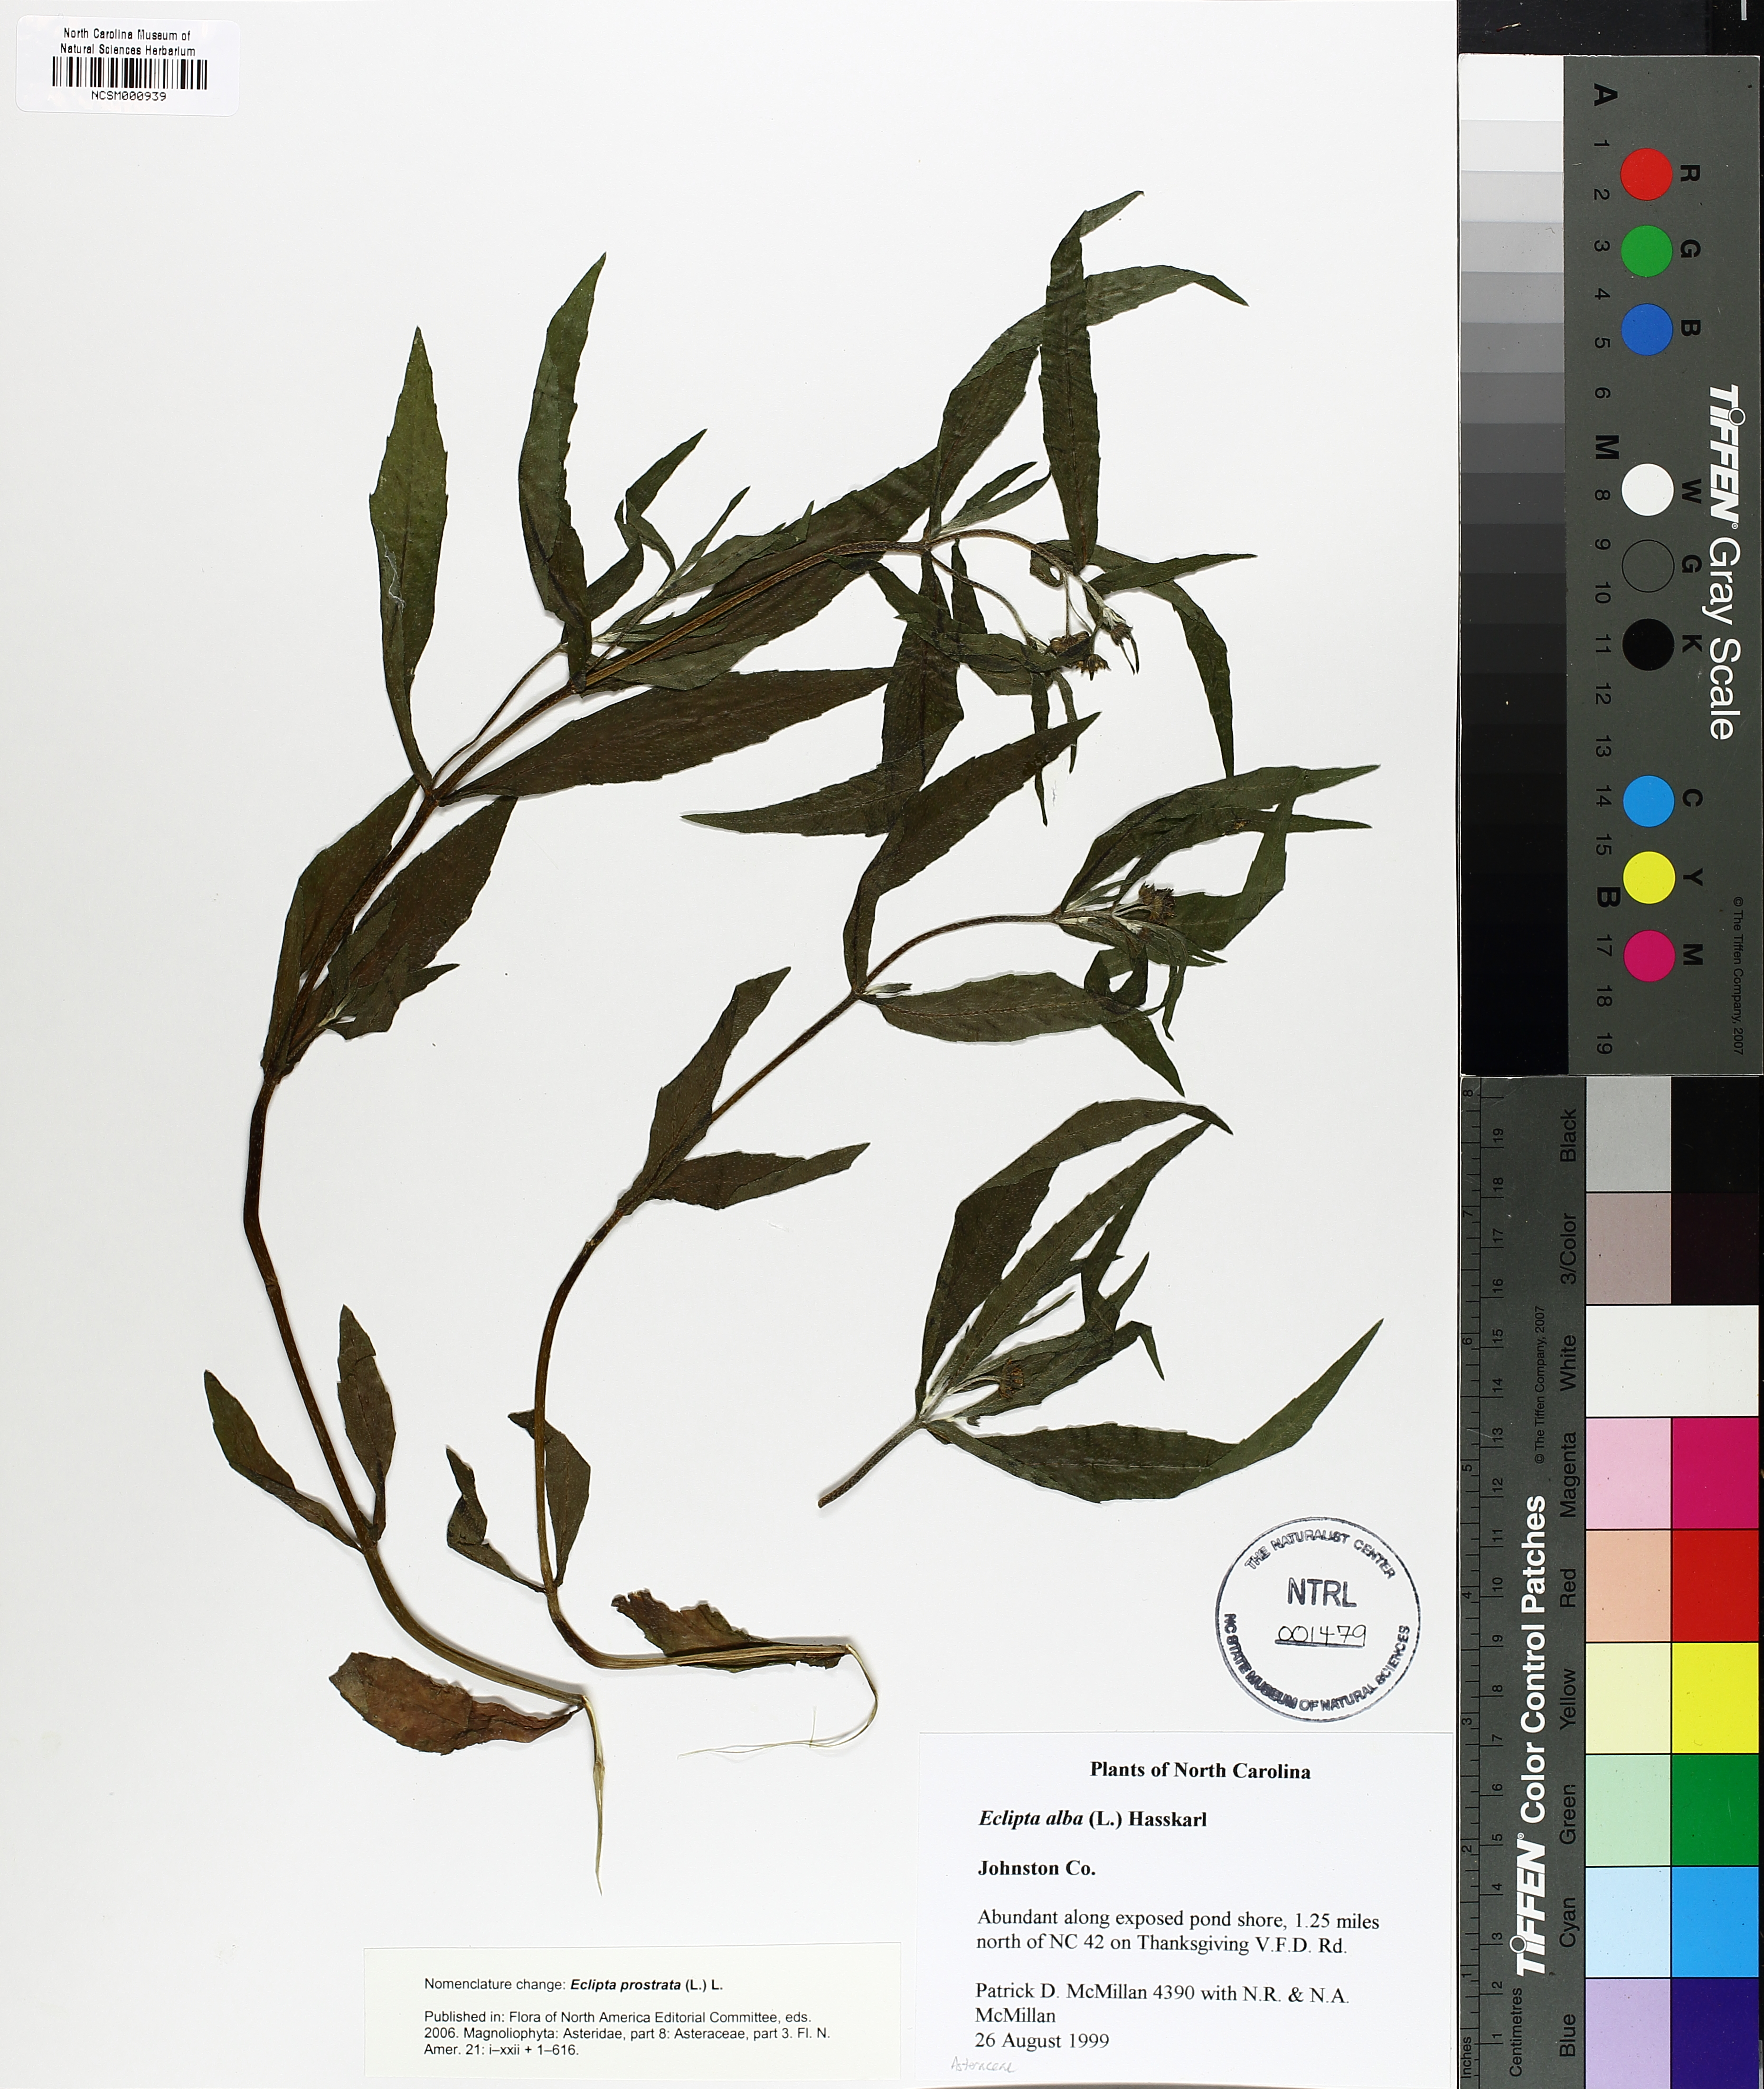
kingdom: Plantae
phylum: Tracheophyta
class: Magnoliopsida
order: Asterales
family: Asteraceae
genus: Eclipta
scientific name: Eclipta prostrata
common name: False daisy
